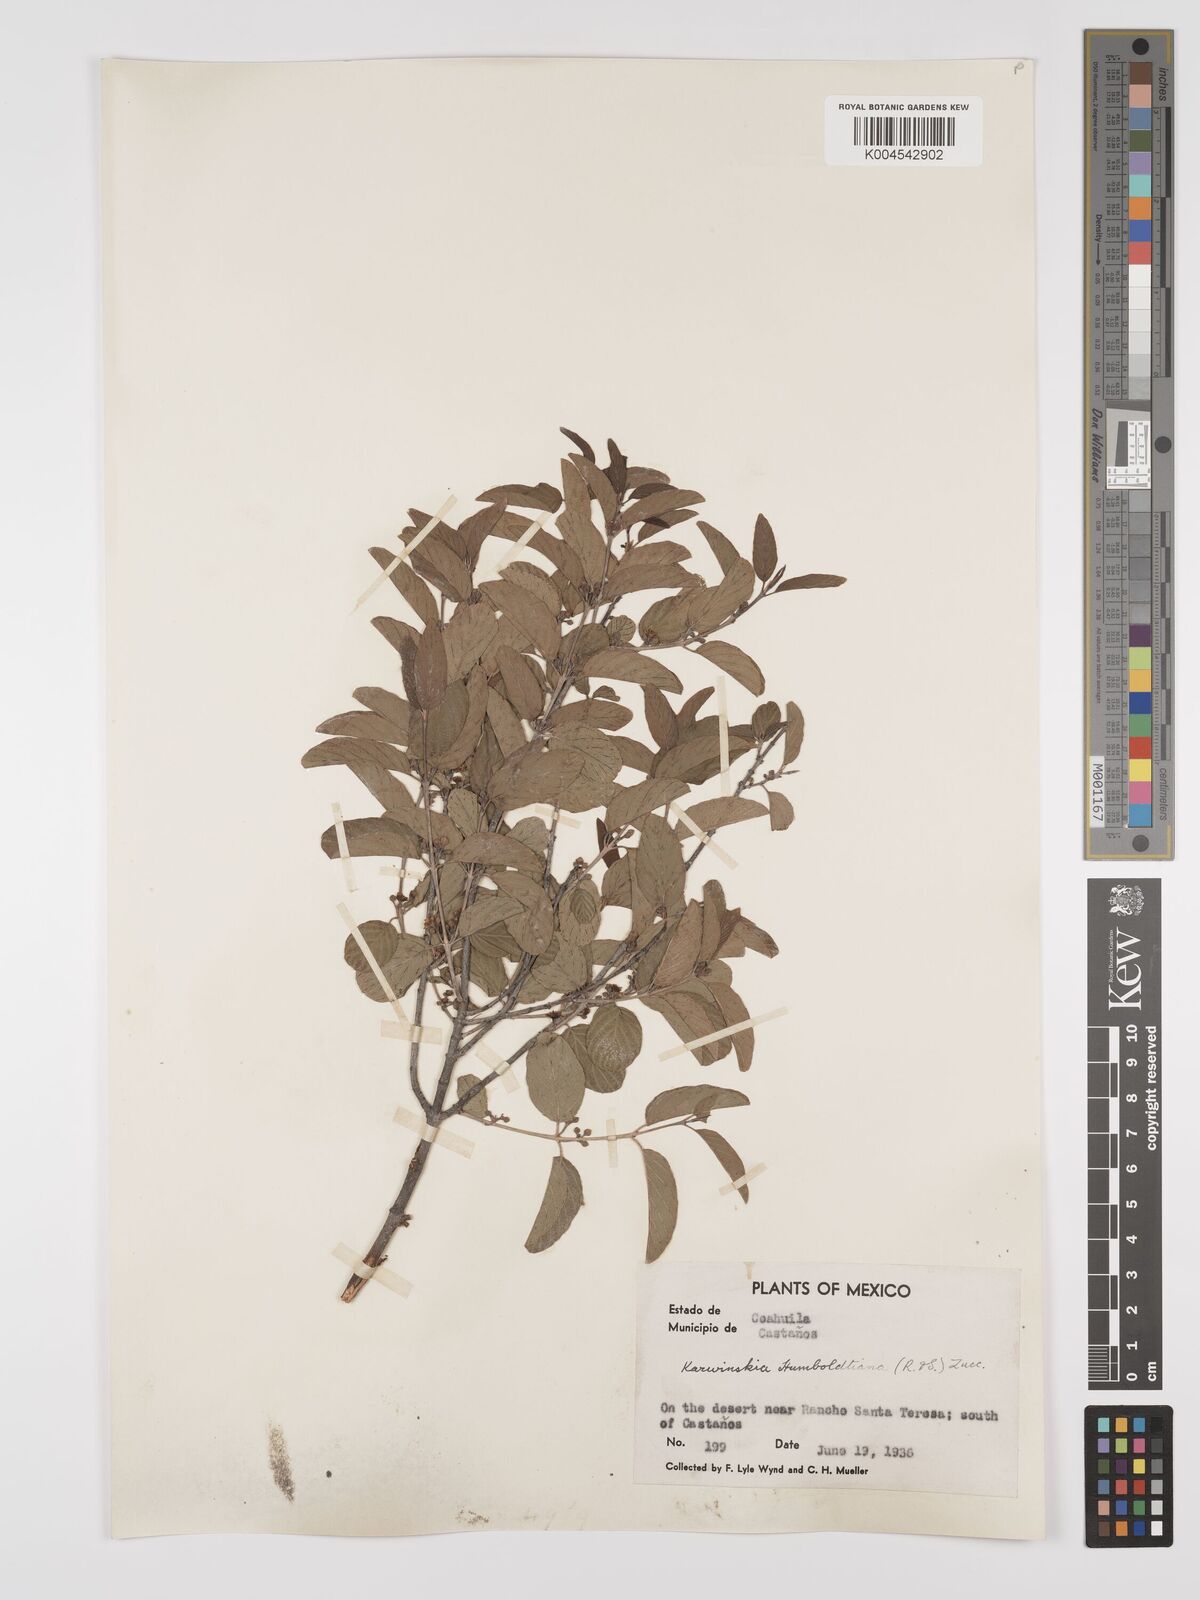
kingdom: Plantae
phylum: Tracheophyta
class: Magnoliopsida
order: Rosales
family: Rhamnaceae
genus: Karwinskia
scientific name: Karwinskia humboldtiana
